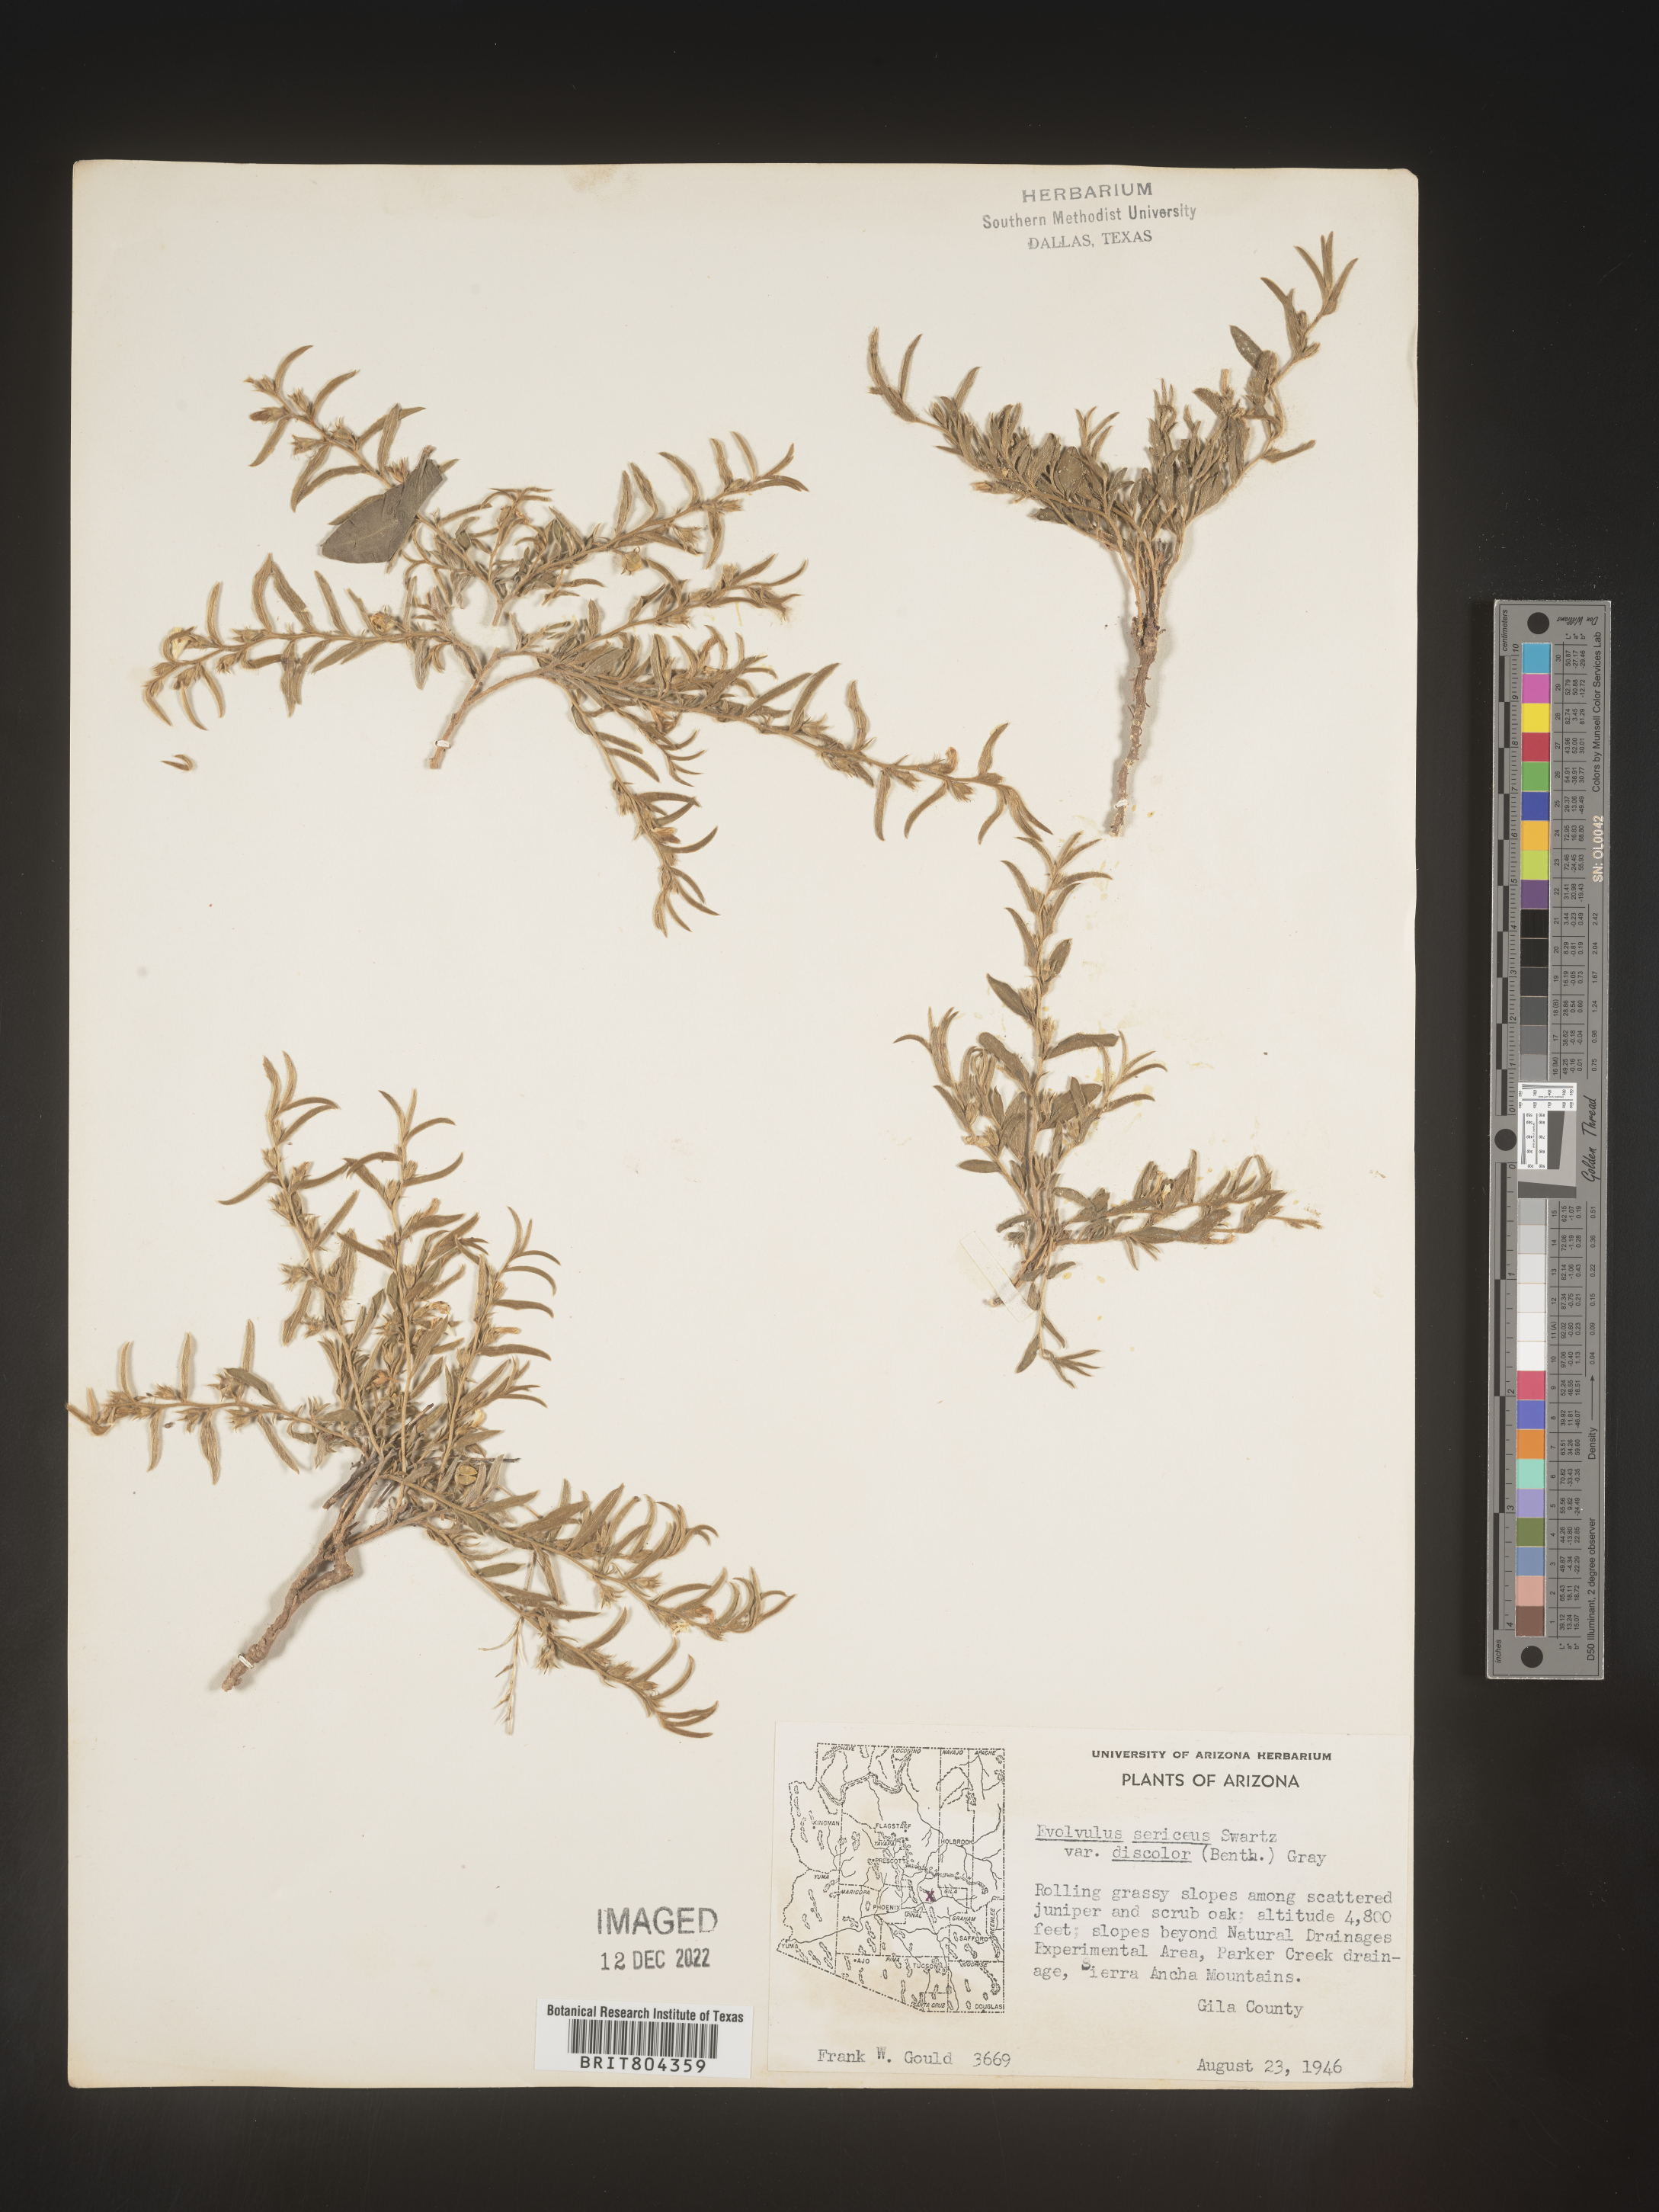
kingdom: Plantae
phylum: Tracheophyta
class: Magnoliopsida
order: Solanales
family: Convolvulaceae
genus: Evolvulus
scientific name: Evolvulus sericeus
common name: Blue dots
